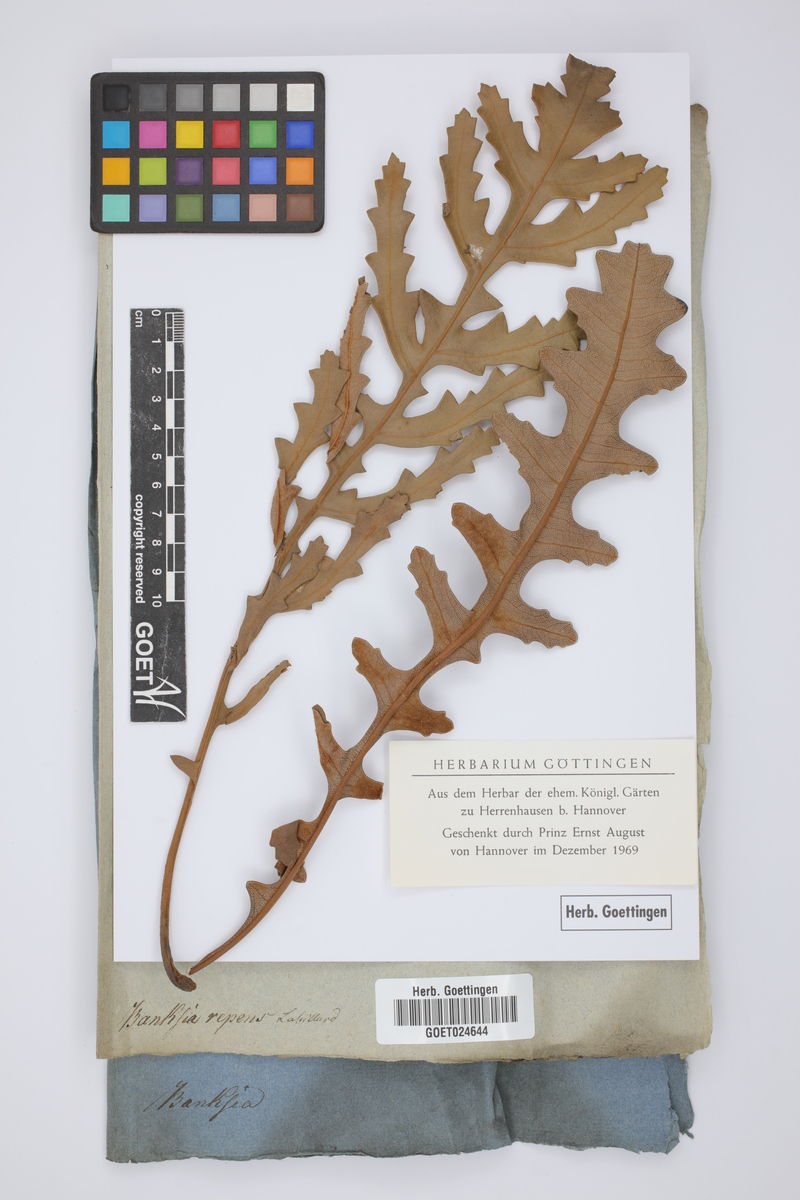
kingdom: Plantae
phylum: Tracheophyta
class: Magnoliopsida
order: Proteales
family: Proteaceae
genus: Banksia
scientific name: Banksia repens
